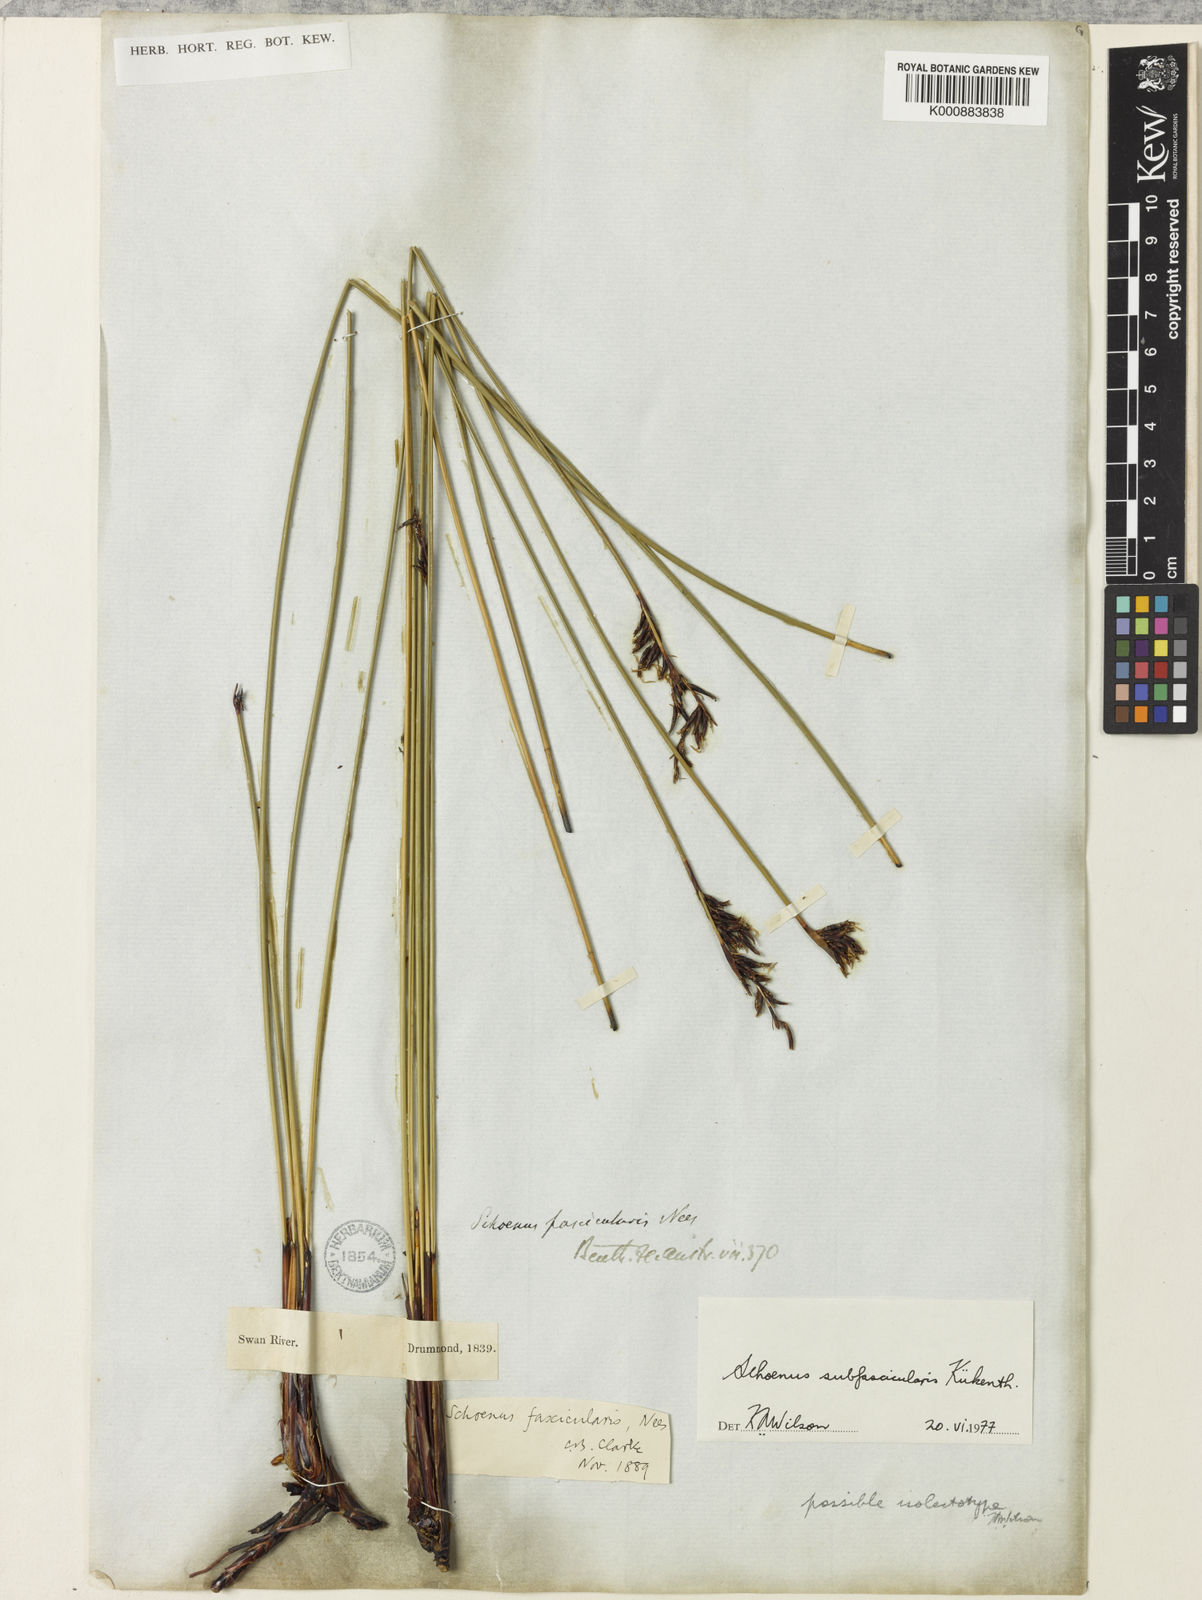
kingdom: Plantae
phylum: Tracheophyta
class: Liliopsida
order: Poales
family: Cyperaceae
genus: Schoenus
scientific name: Schoenus
